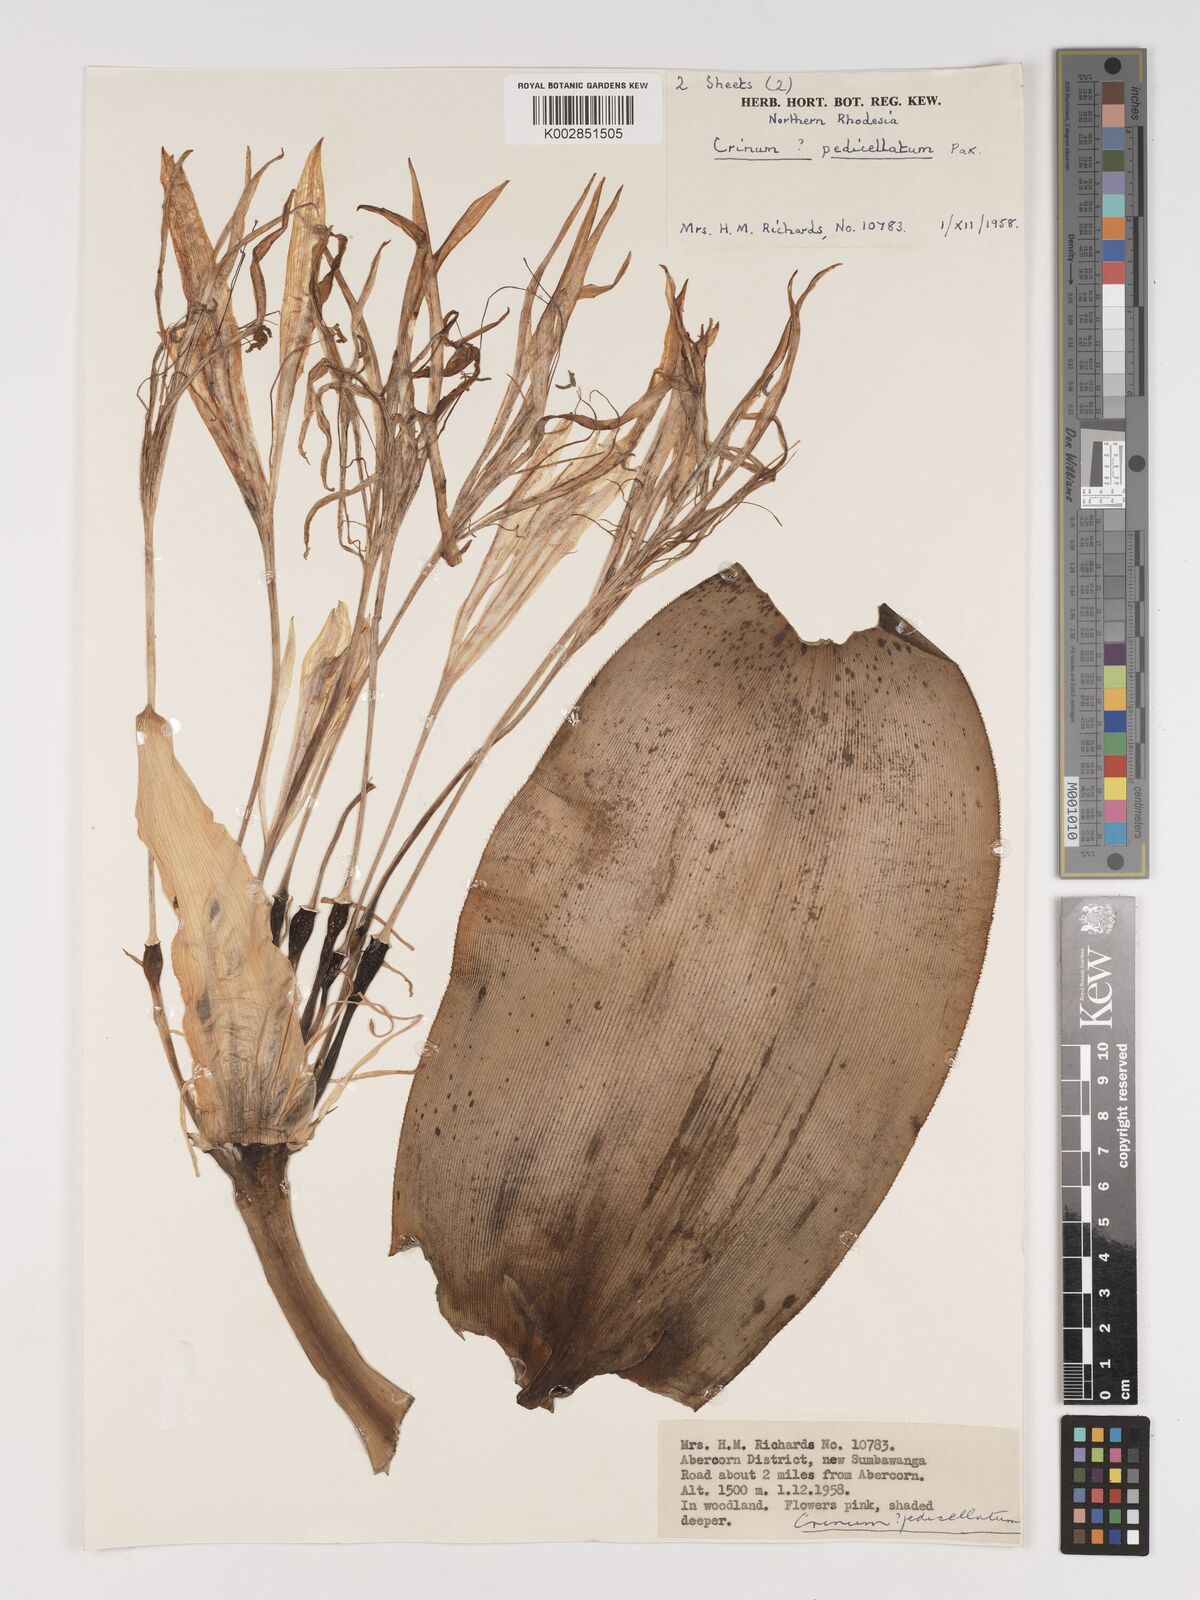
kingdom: Plantae
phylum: Tracheophyta
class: Liliopsida
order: Asparagales
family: Amaryllidaceae
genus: Crinum
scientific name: Crinum stuhlmannii
